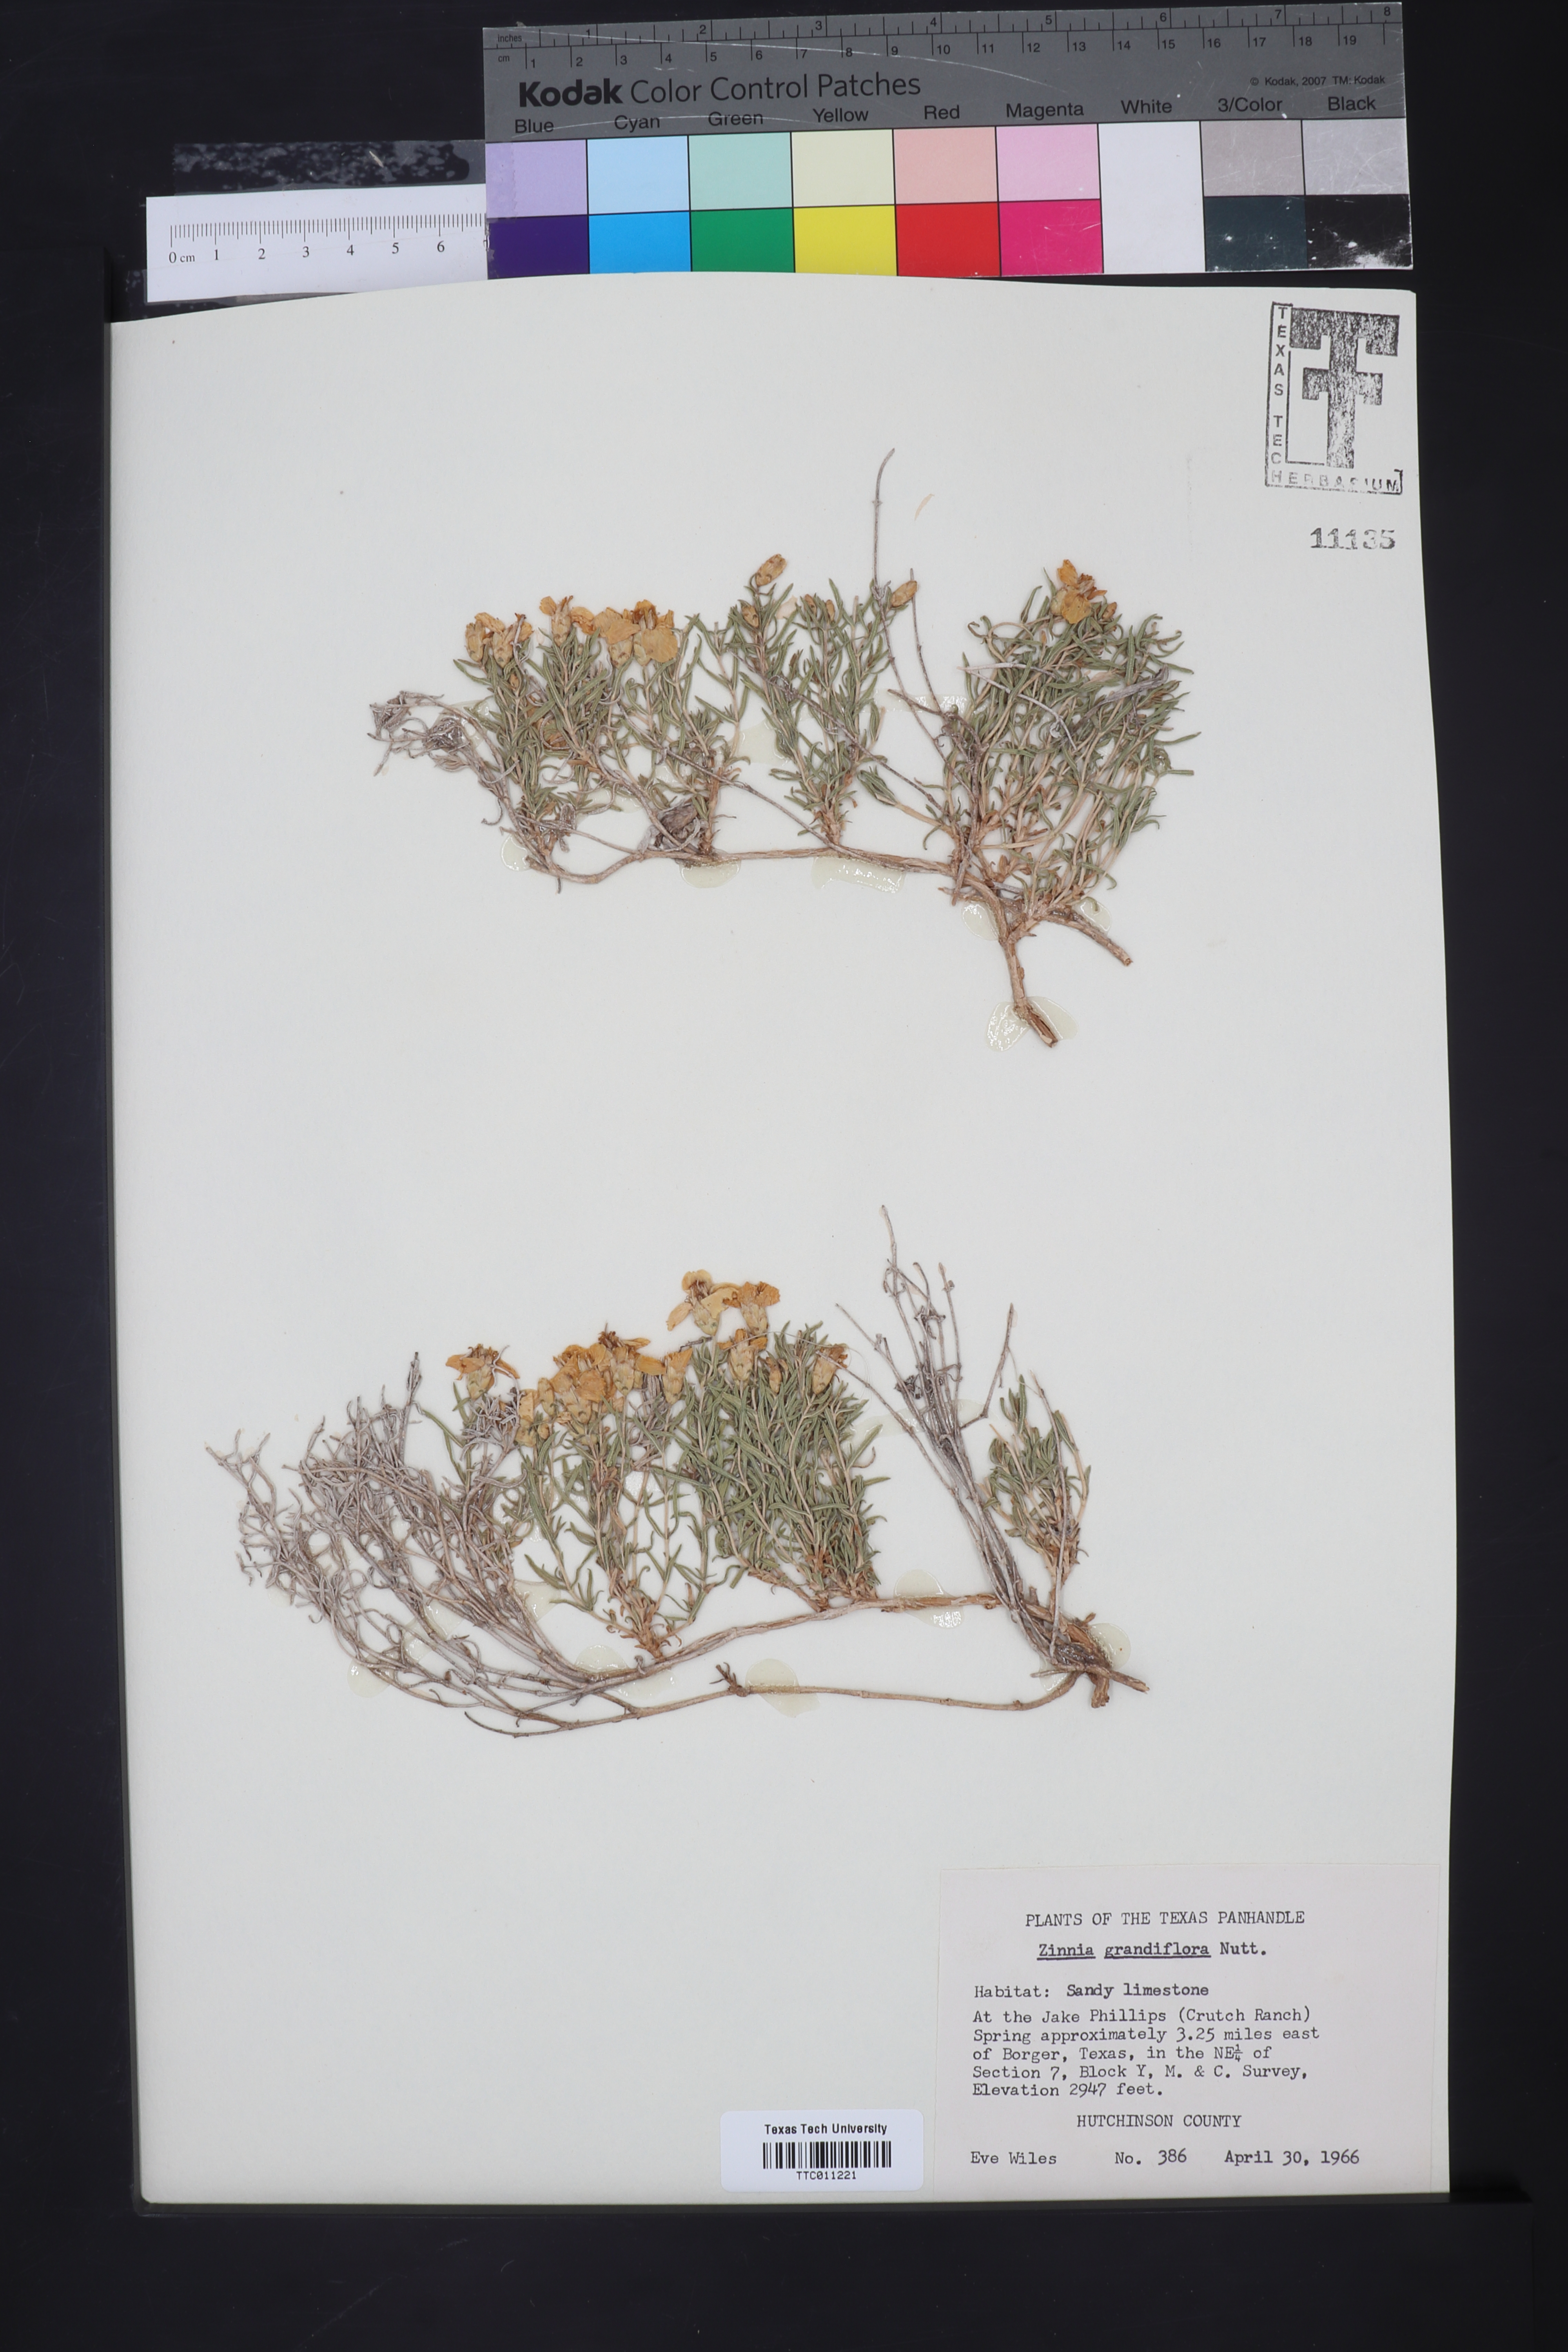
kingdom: Plantae
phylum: Tracheophyta
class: Magnoliopsida
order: Asterales
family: Asteraceae
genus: Zinnia
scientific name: Zinnia grandiflora
